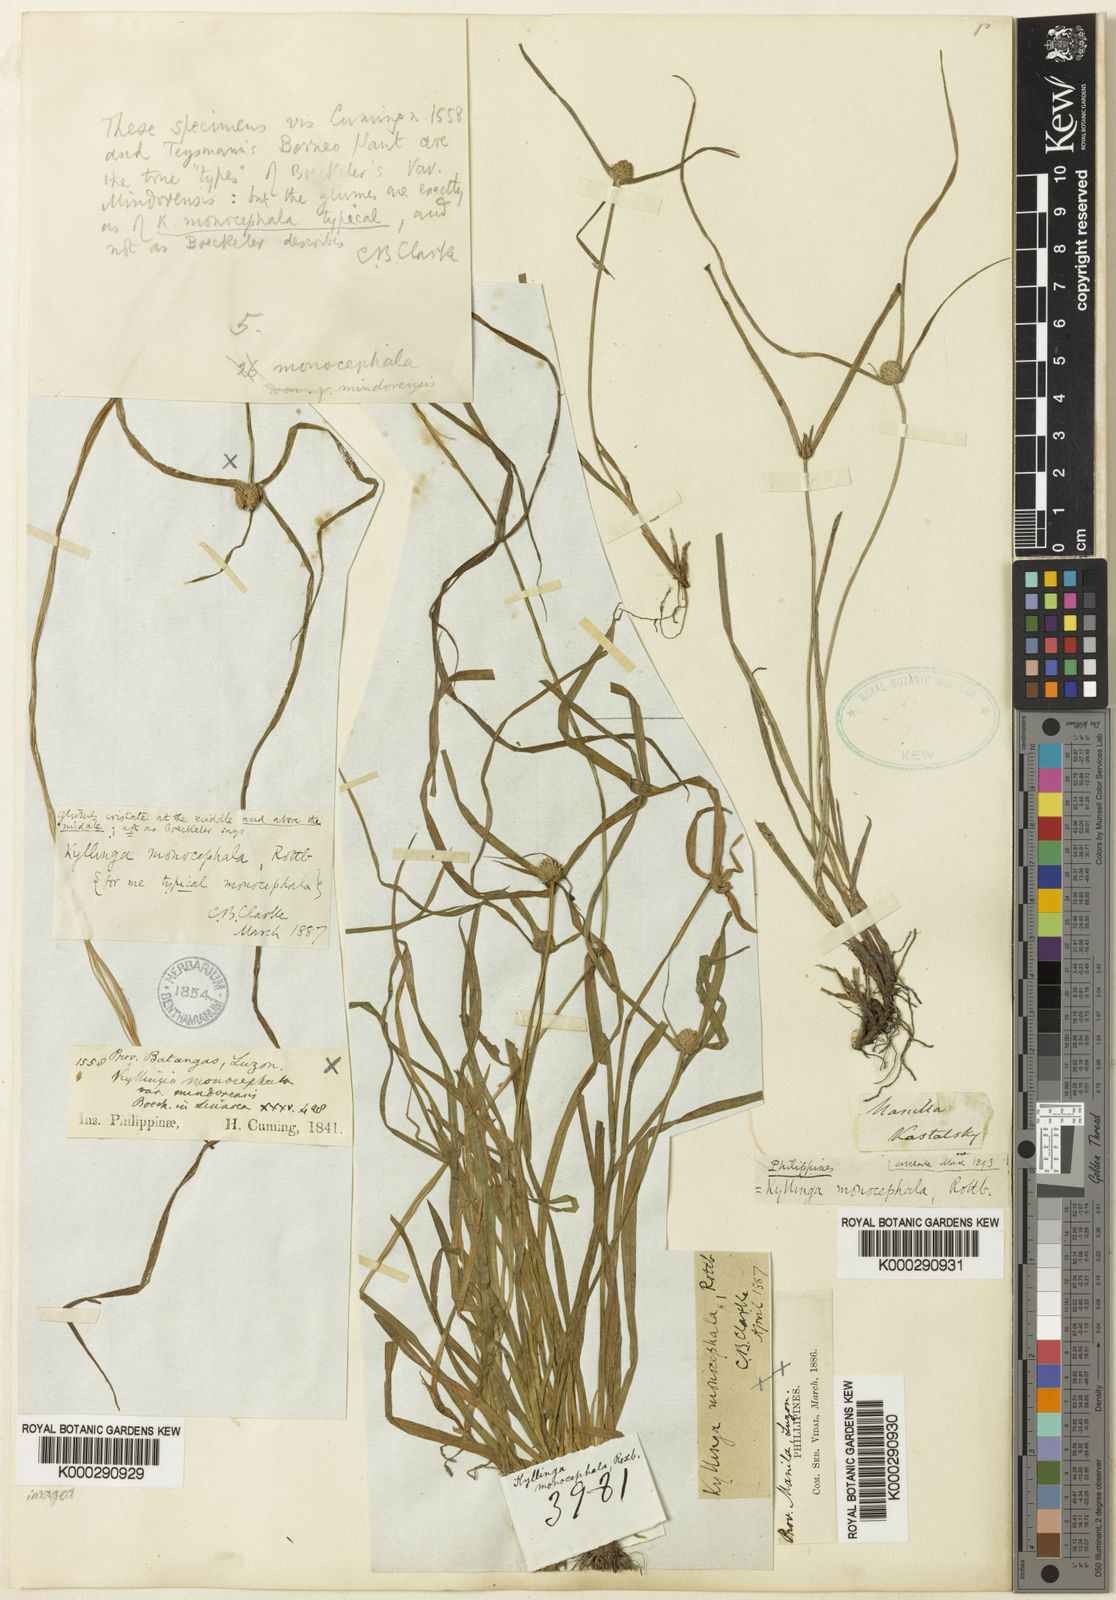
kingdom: Plantae
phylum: Tracheophyta
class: Liliopsida
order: Poales
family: Cyperaceae
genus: Cyperus
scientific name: Cyperus mindorensis
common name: Flatsedge
